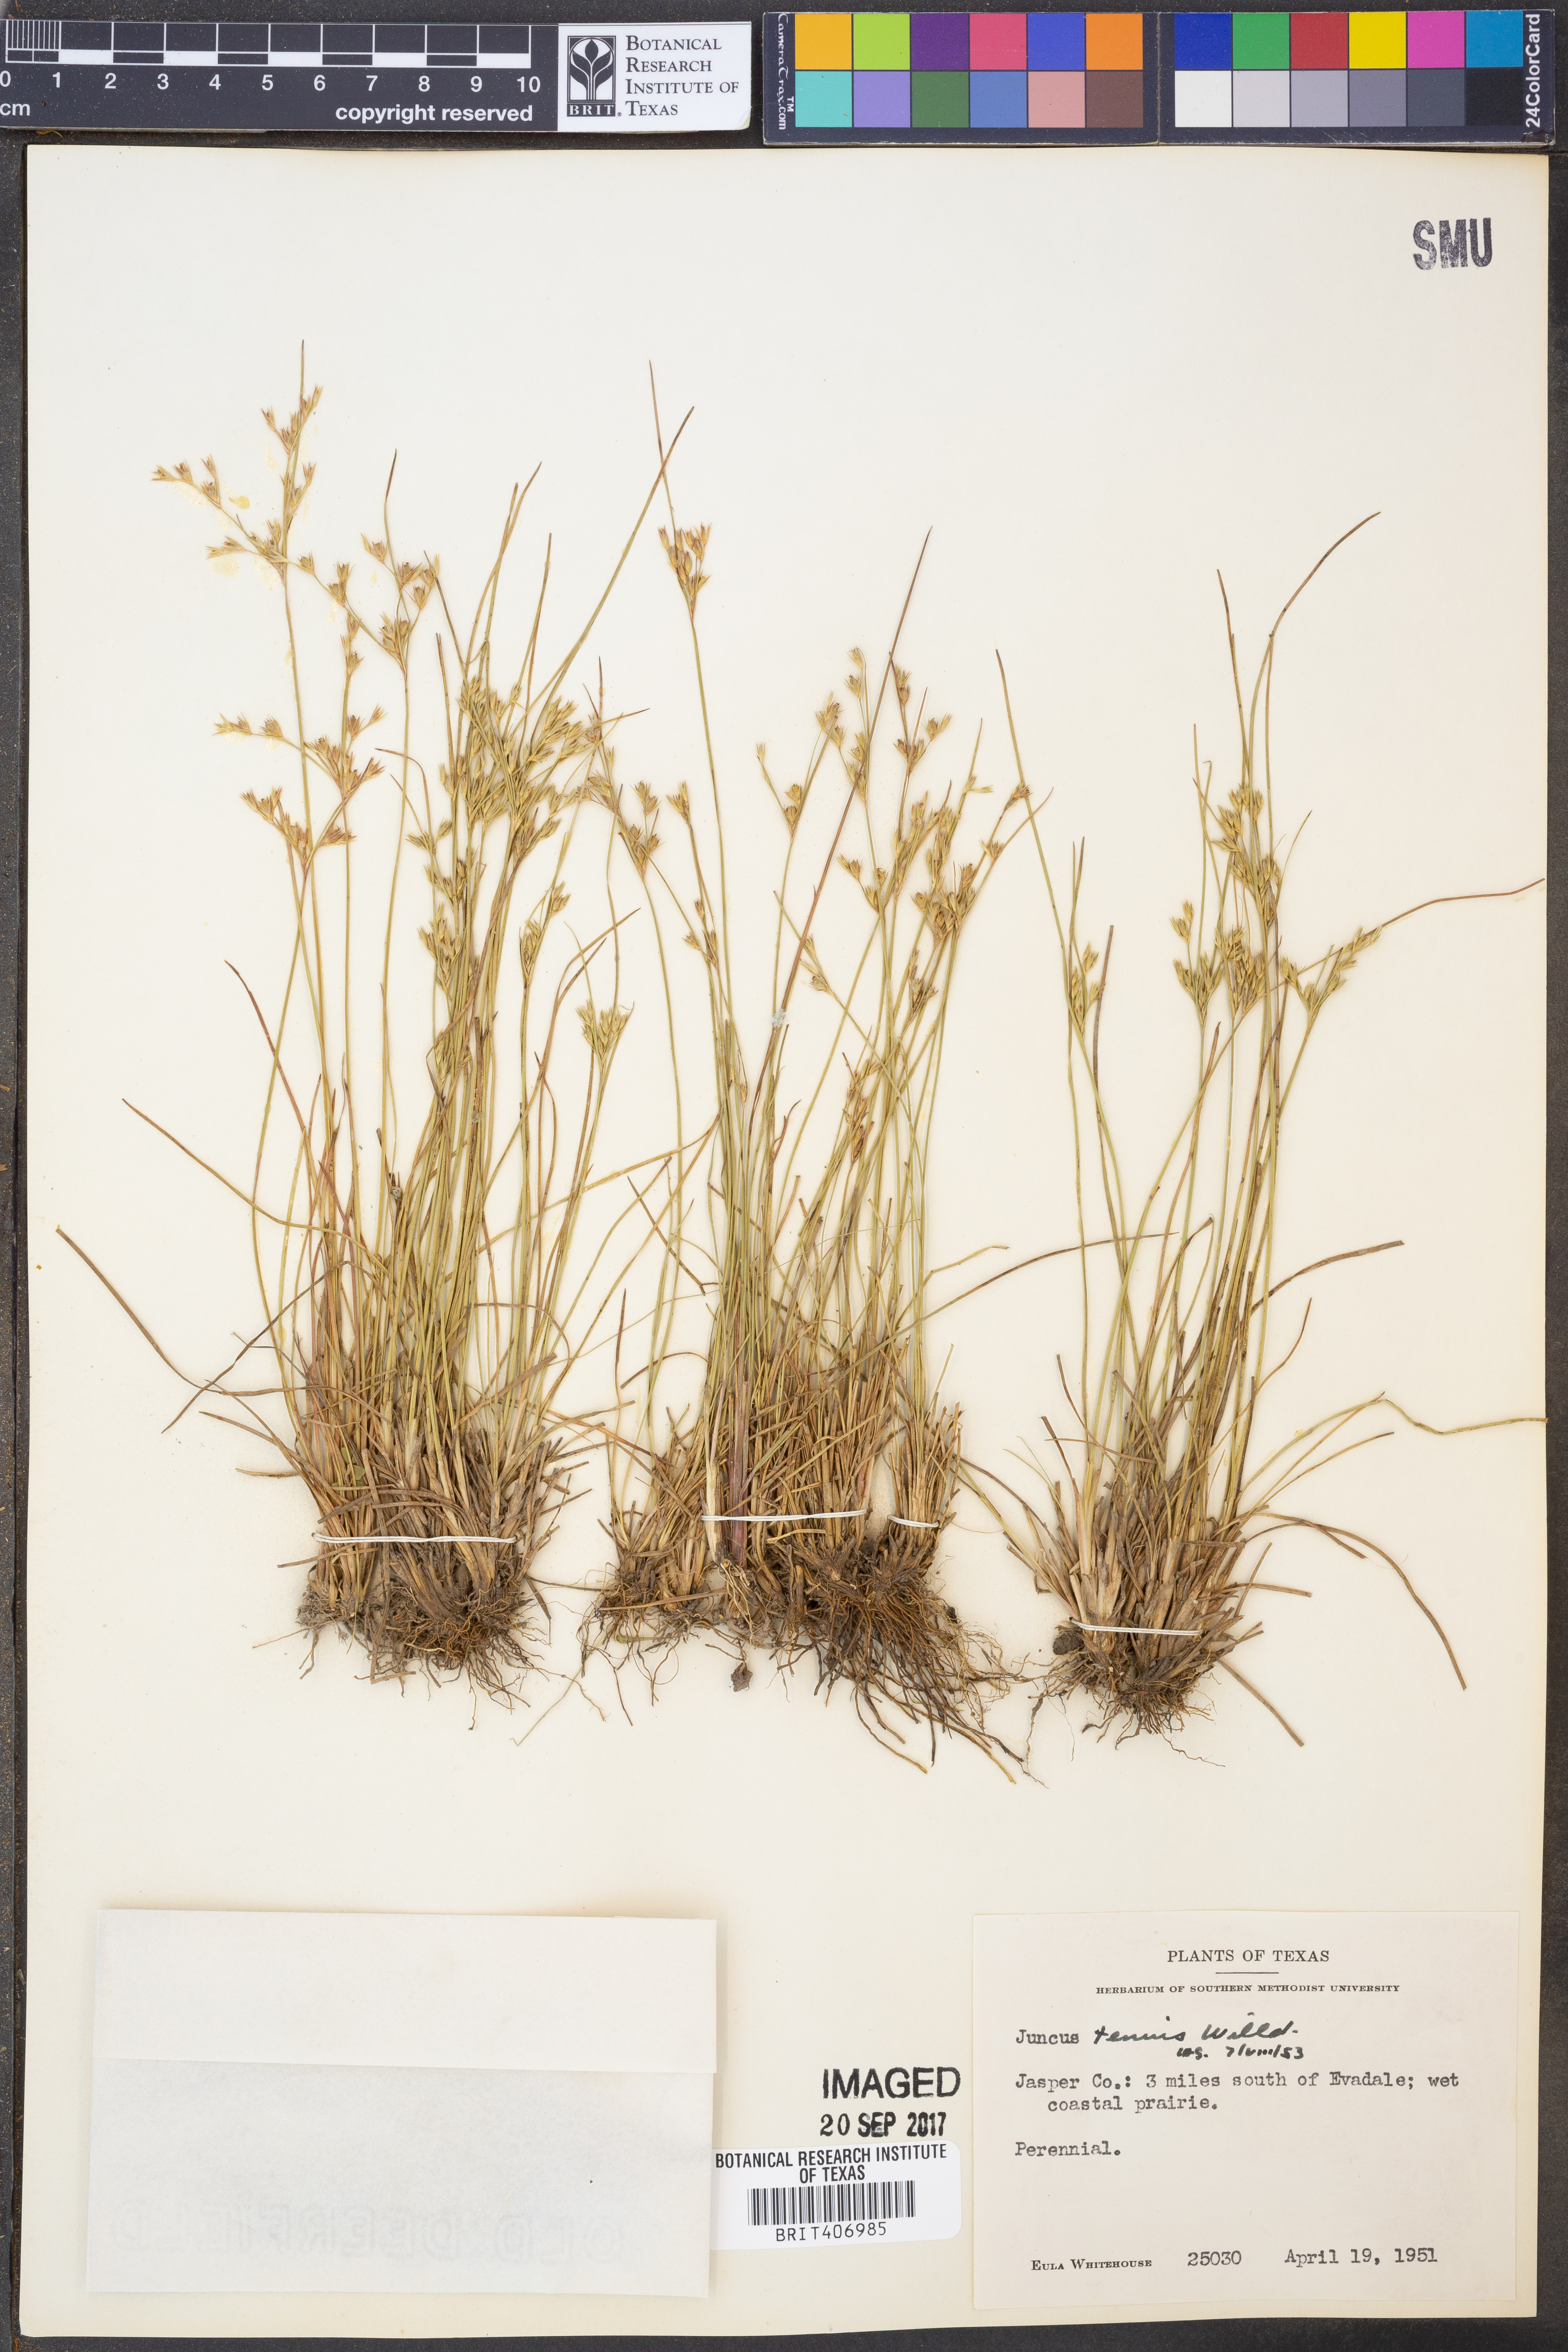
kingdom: Plantae
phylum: Tracheophyta
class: Liliopsida
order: Poales
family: Juncaceae
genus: Juncus
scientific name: Juncus tenuis
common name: Slender rush
